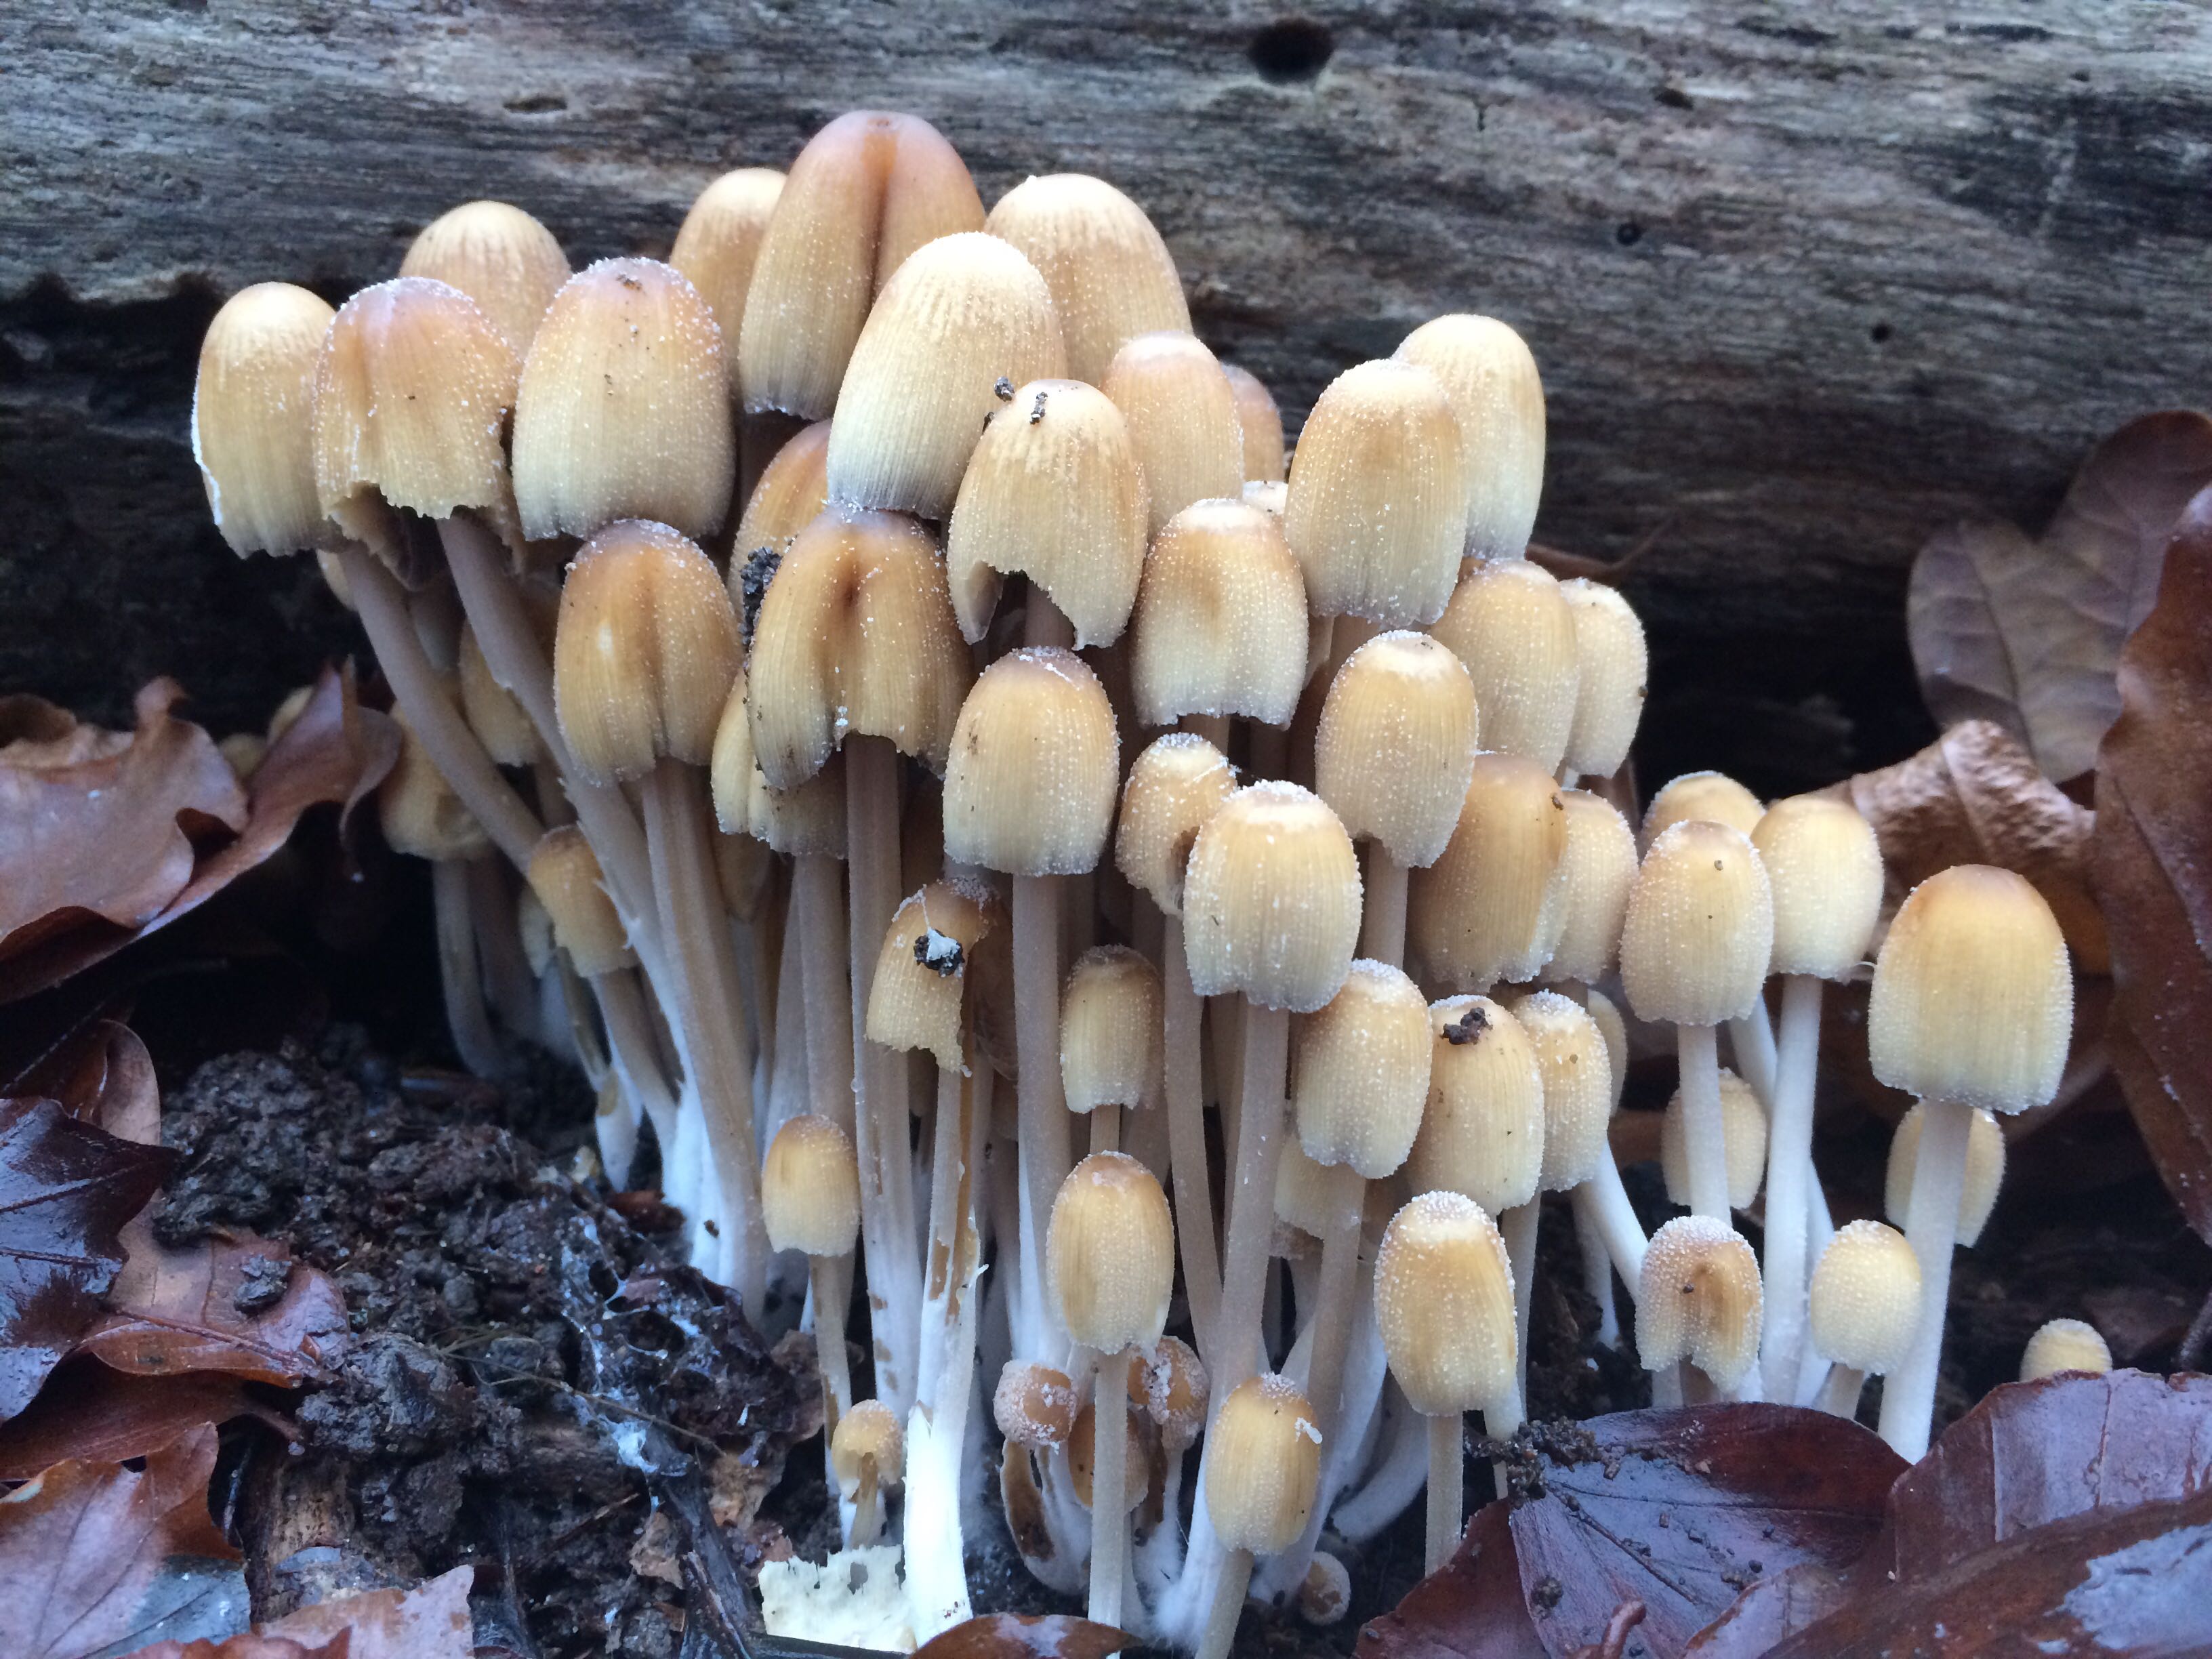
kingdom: Fungi
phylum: Basidiomycota
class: Agaricomycetes
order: Agaricales
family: Psathyrellaceae
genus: Coprinellus
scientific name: Coprinellus micaceus
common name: glimmer-blækhat
